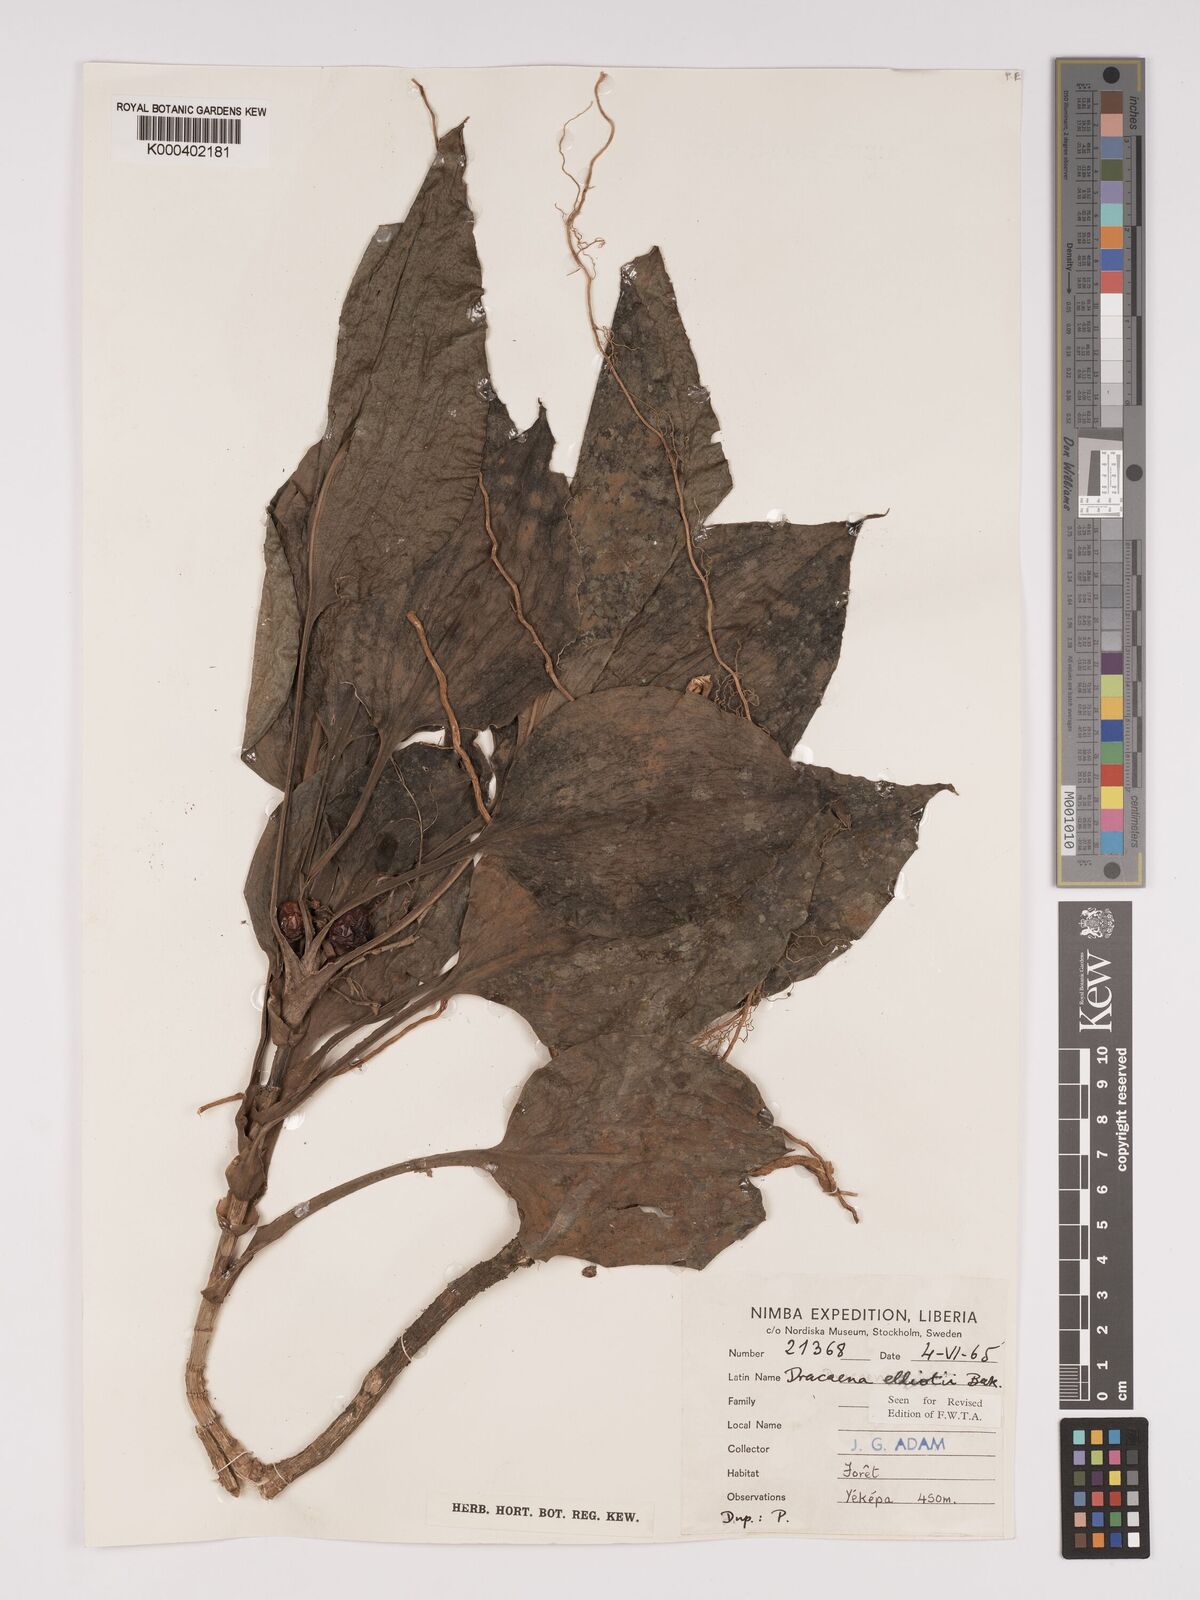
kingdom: Plantae
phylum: Tracheophyta
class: Liliopsida
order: Asparagales
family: Asparagaceae
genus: Dracaena
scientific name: Dracaena cristula
